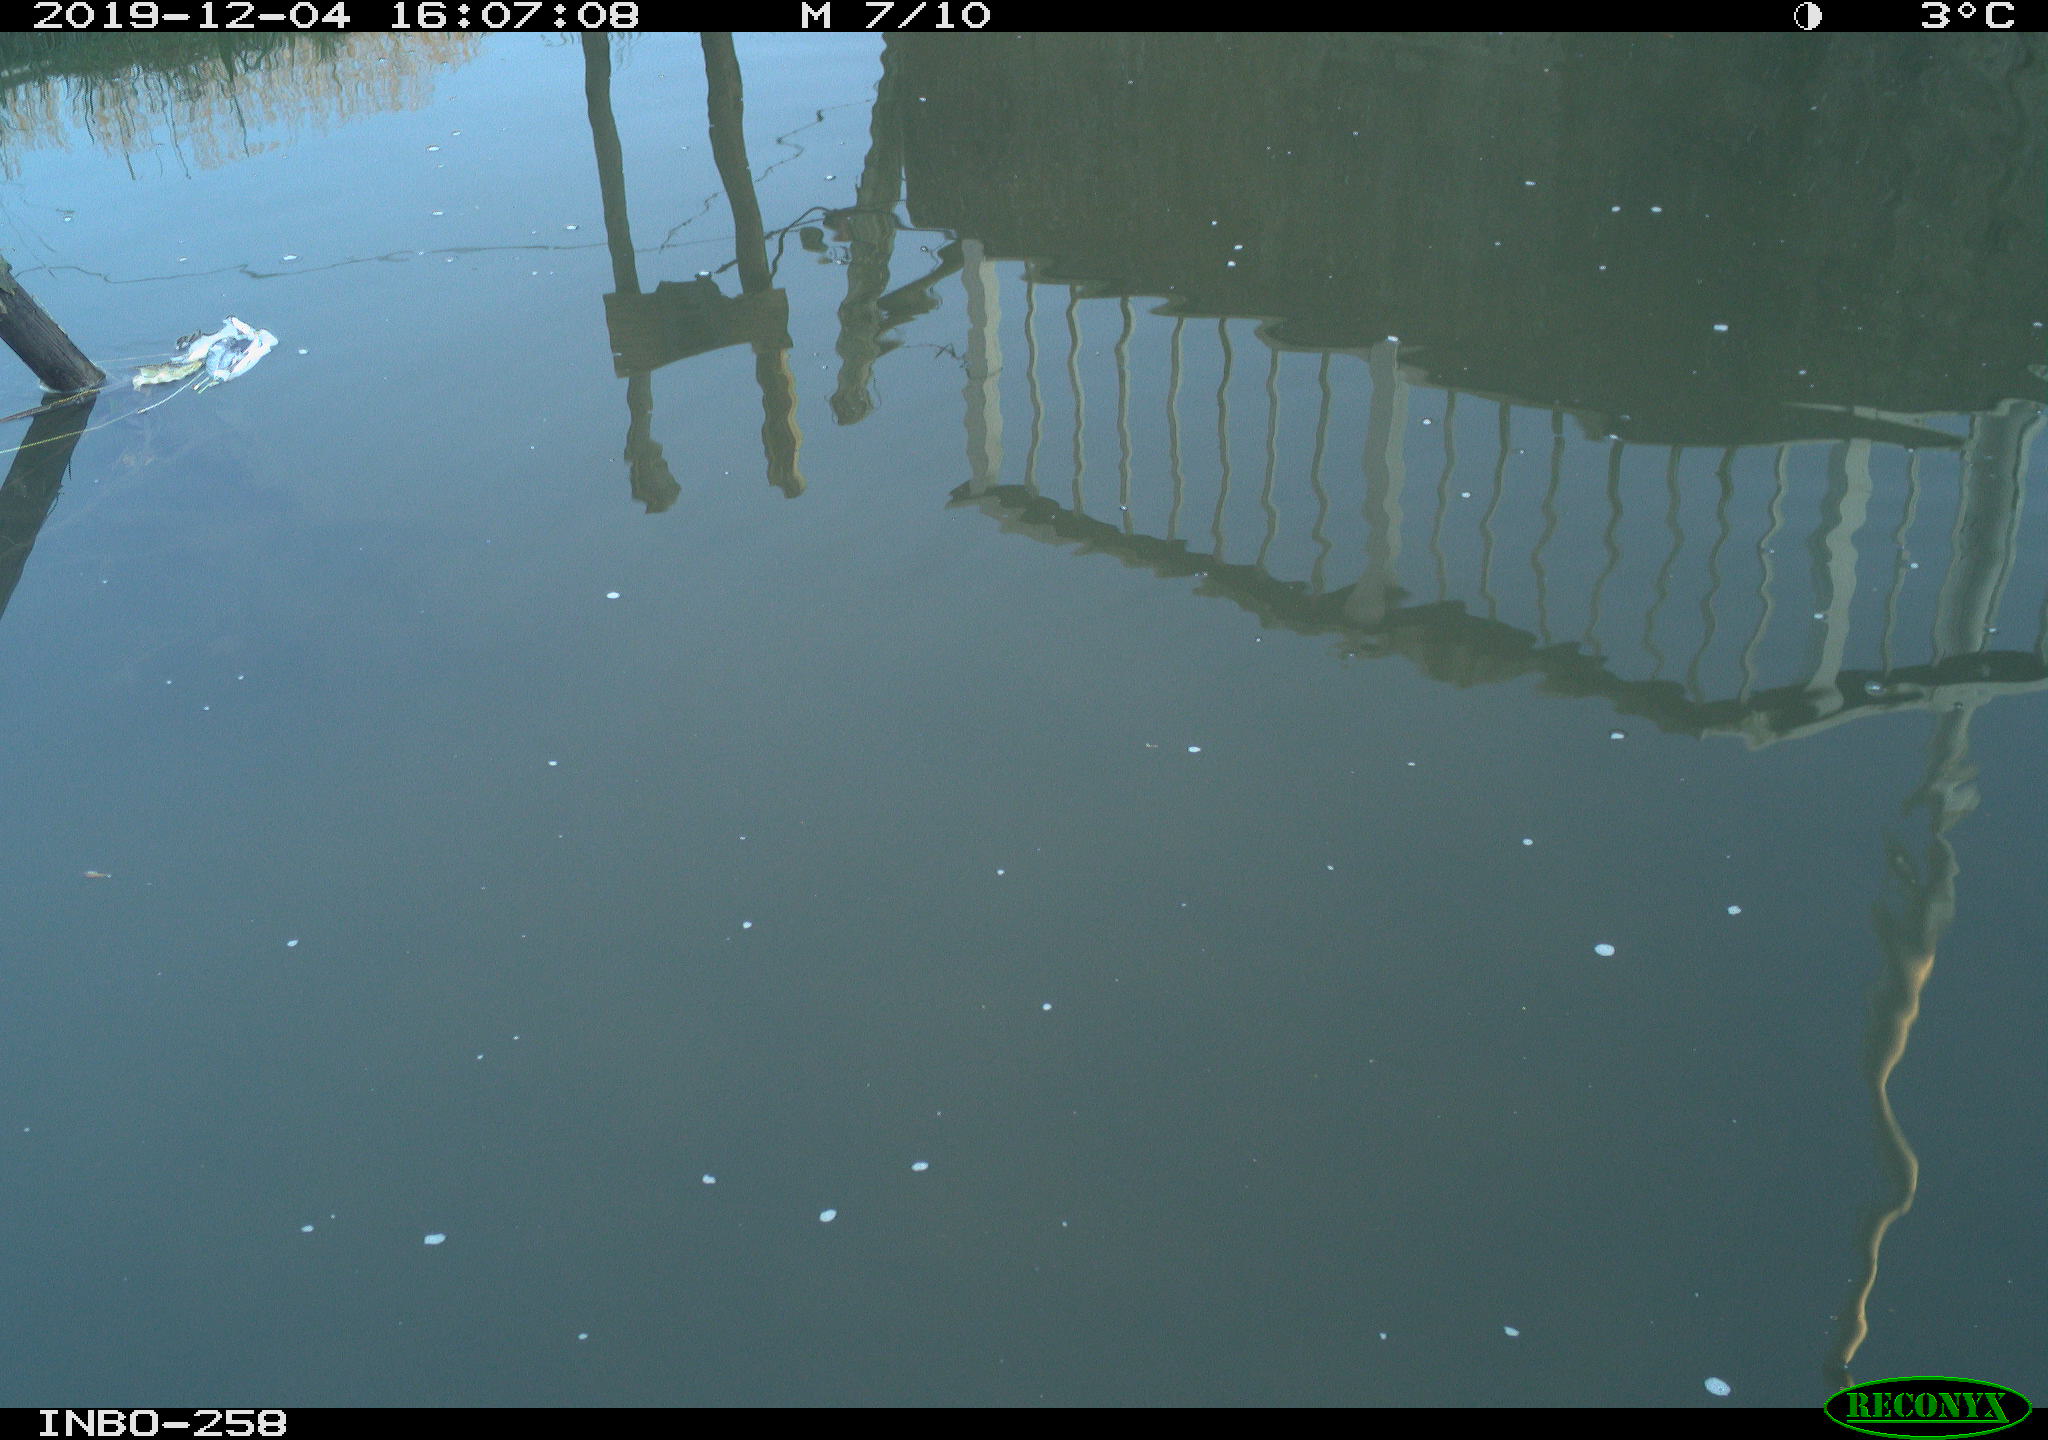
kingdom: Animalia
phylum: Chordata
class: Aves
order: Gruiformes
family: Rallidae
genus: Gallinula
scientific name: Gallinula chloropus
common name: Common moorhen
